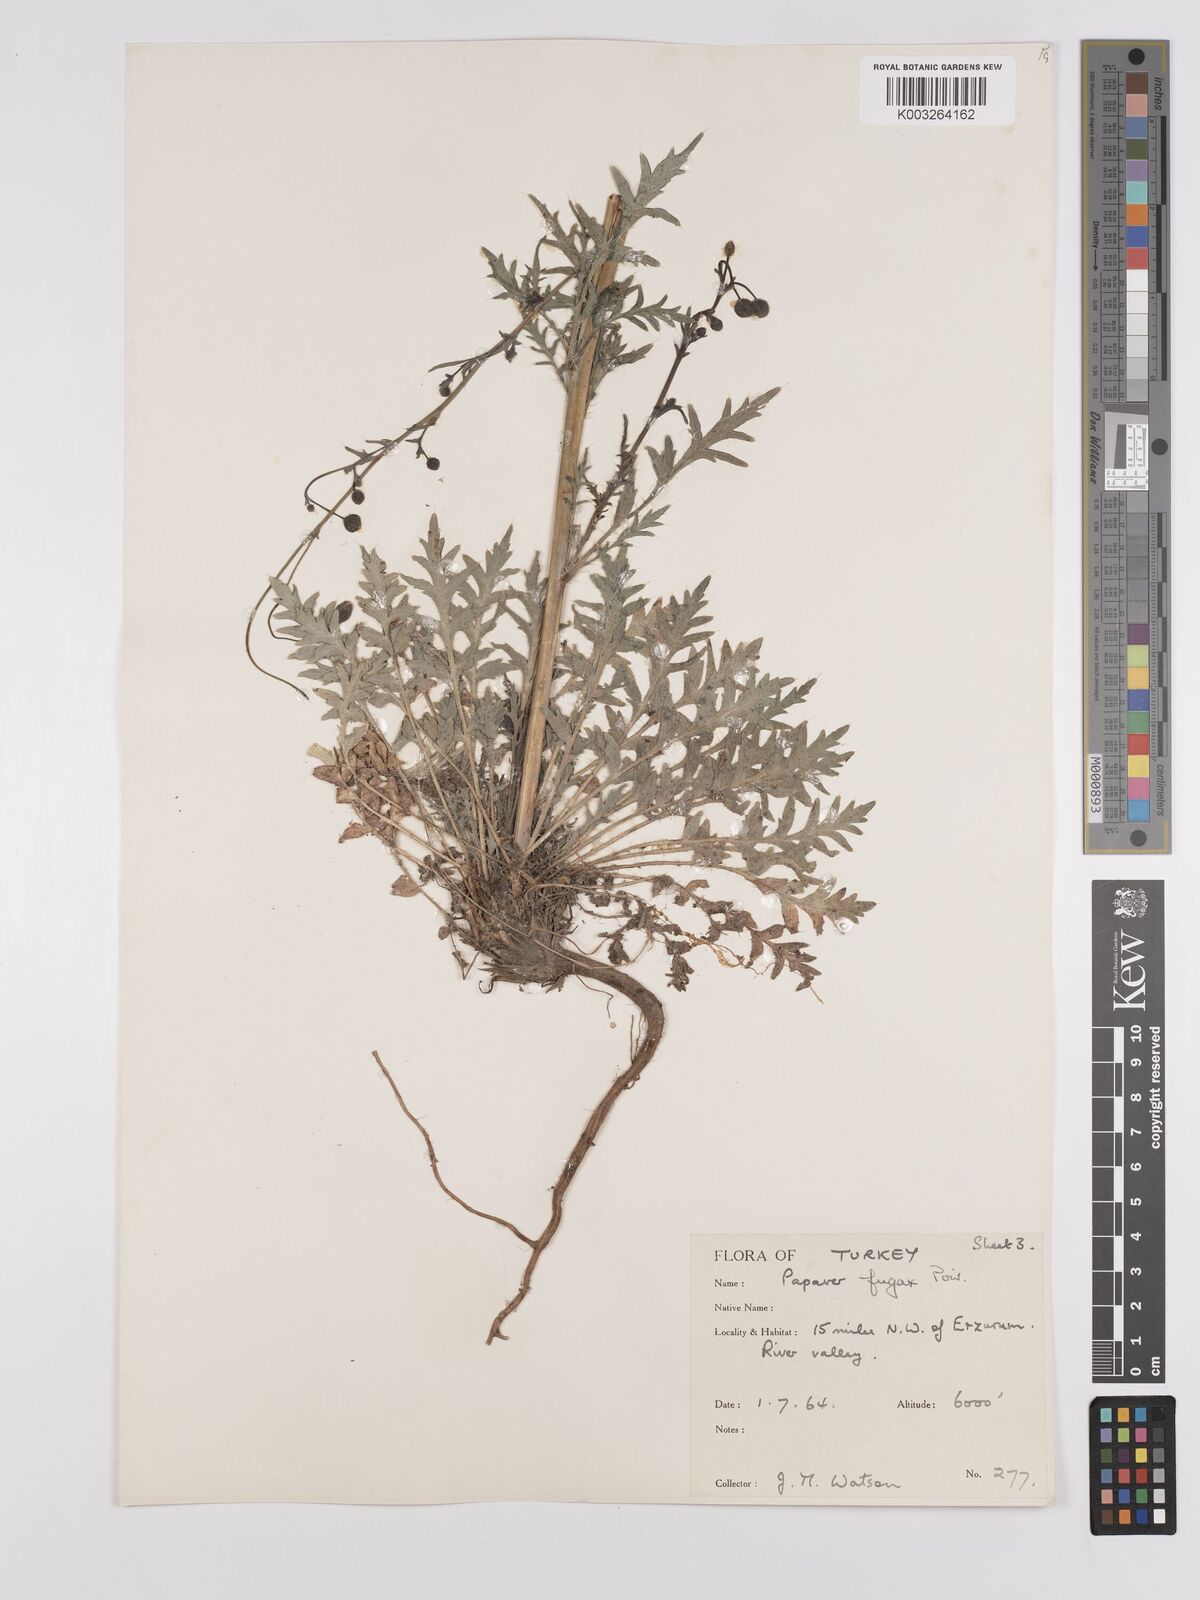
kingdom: Plantae
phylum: Tracheophyta
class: Magnoliopsida
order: Ranunculales
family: Papaveraceae
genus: Papaver
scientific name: Papaver armeniacum
